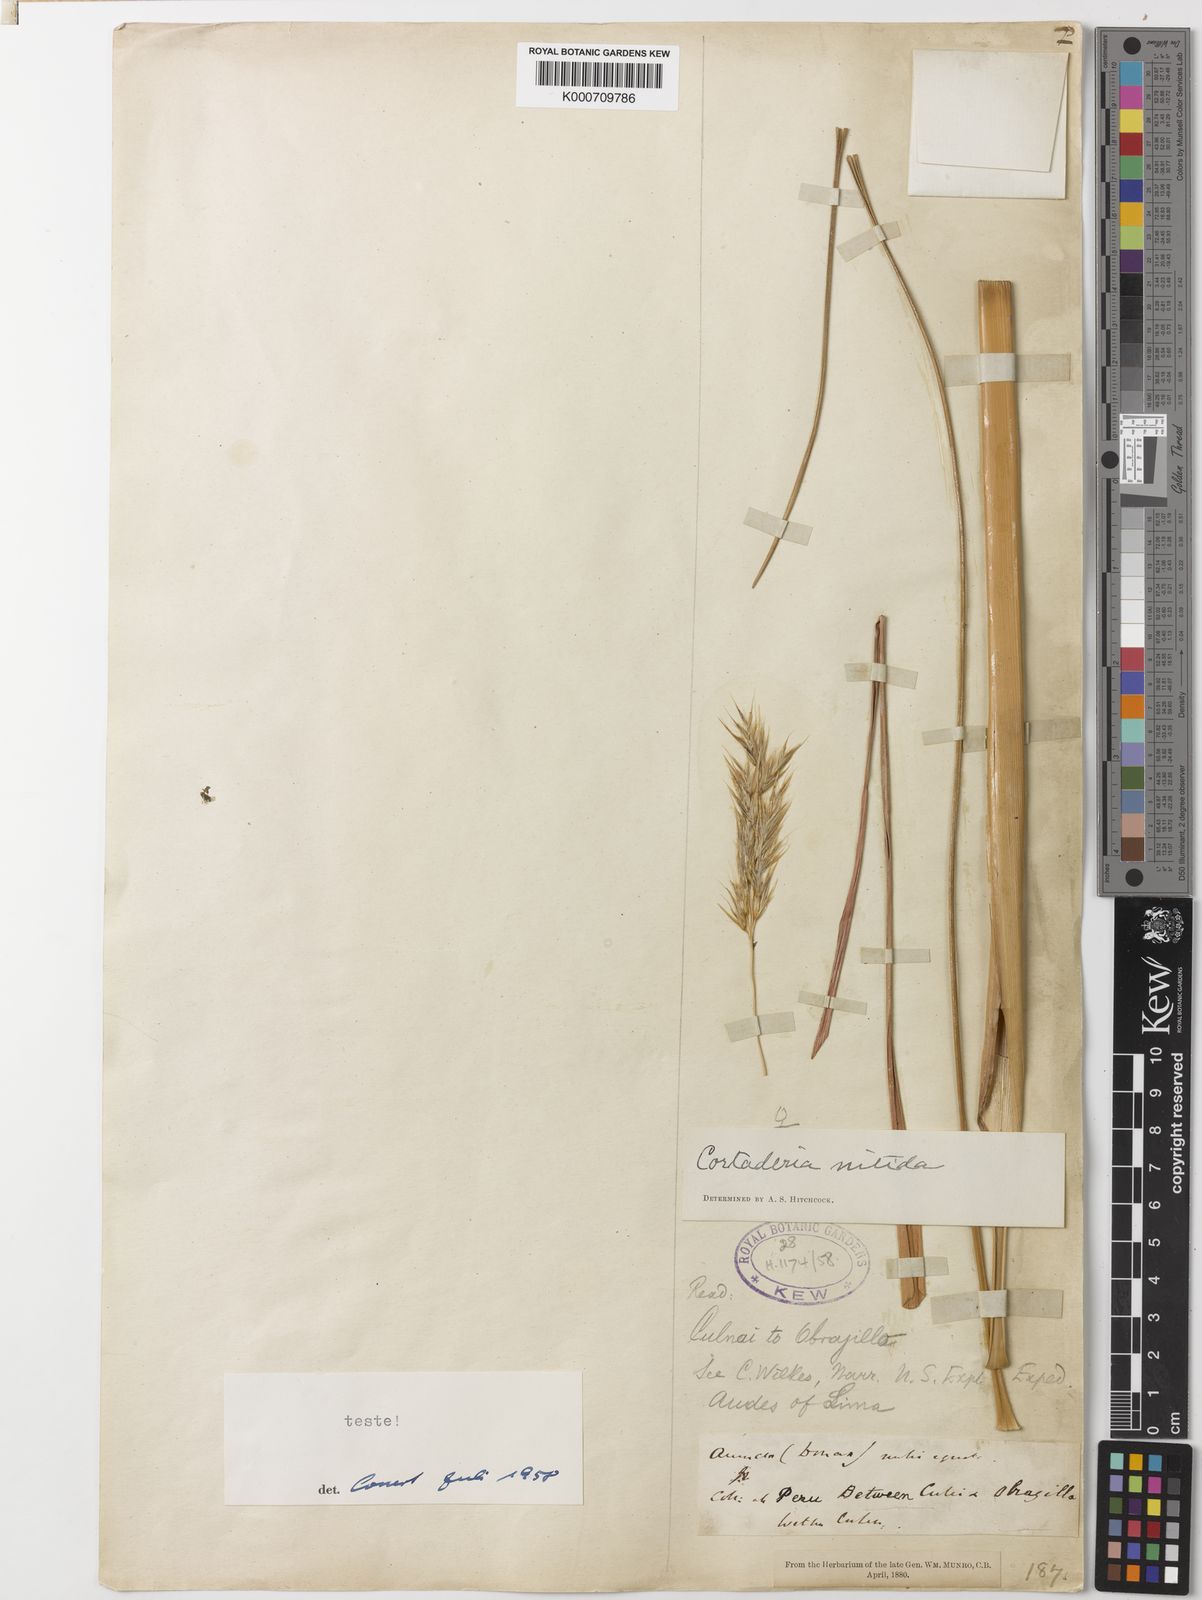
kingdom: Plantae
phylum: Tracheophyta
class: Liliopsida
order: Poales
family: Poaceae
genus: Cortaderia
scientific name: Cortaderia nitida
